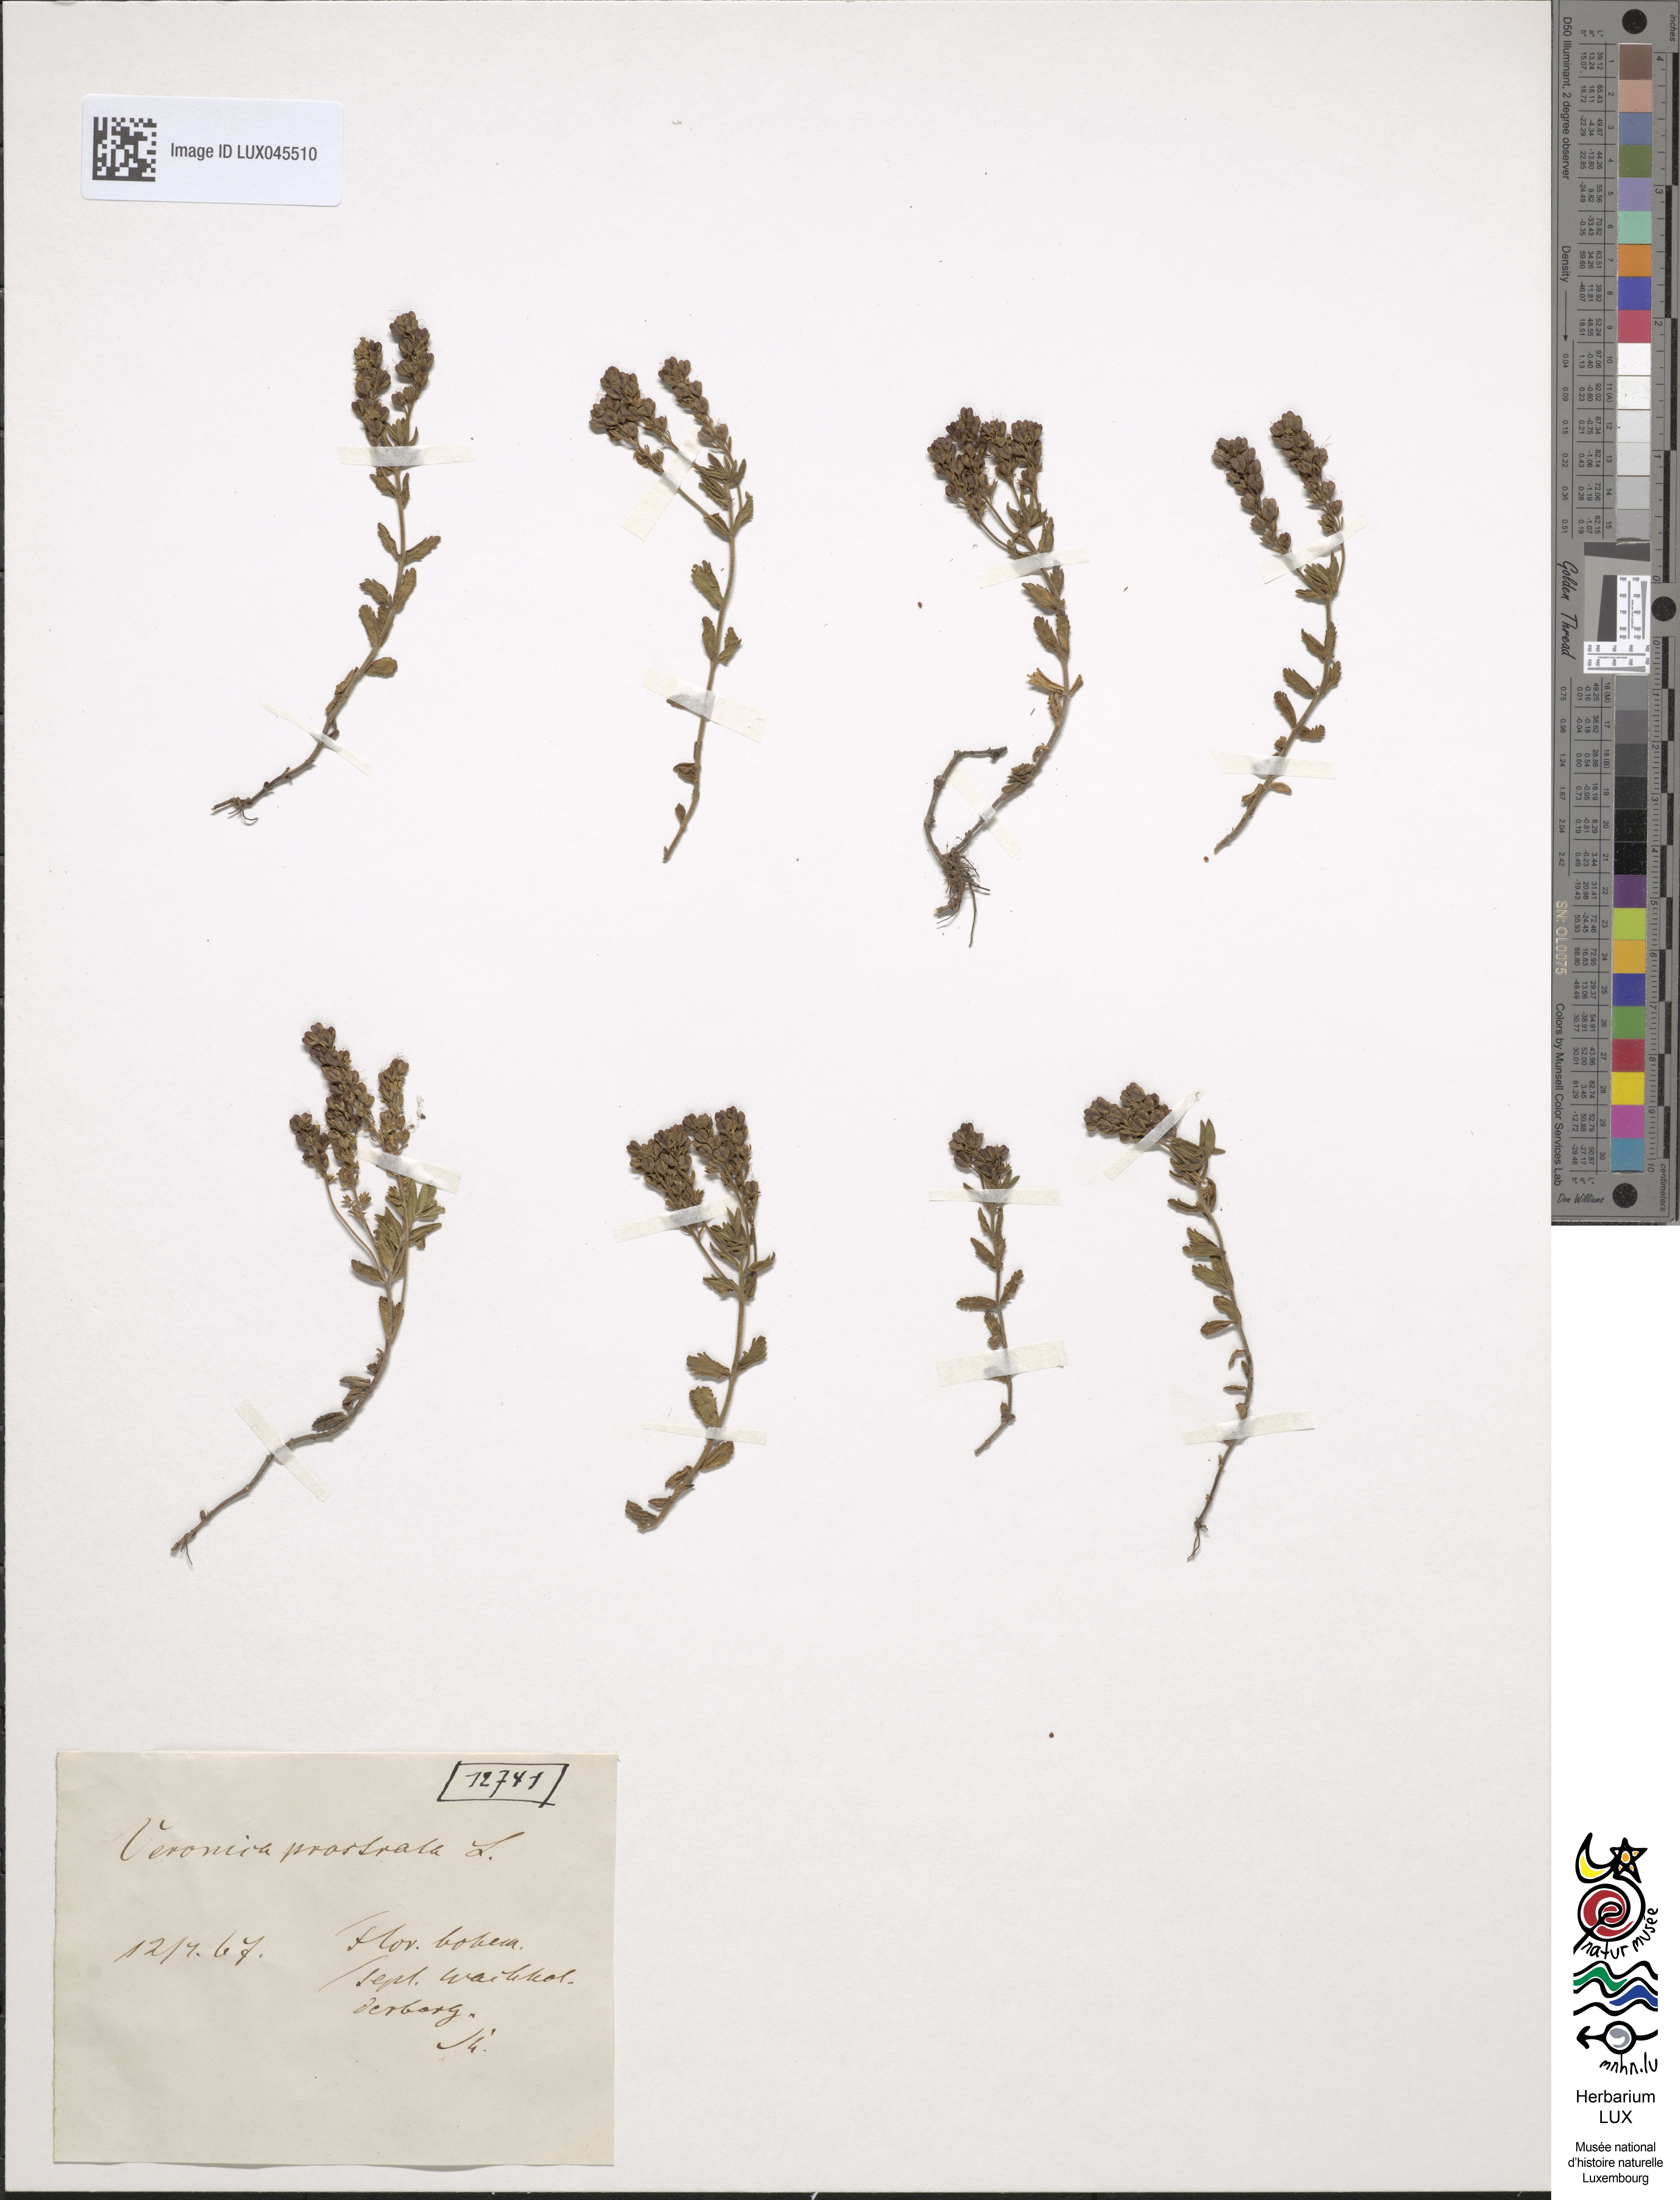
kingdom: Plantae
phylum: Tracheophyta
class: Magnoliopsida
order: Lamiales
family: Plantaginaceae
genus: Veronica
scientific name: Veronica prostrata
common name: Prostrate speedwell
